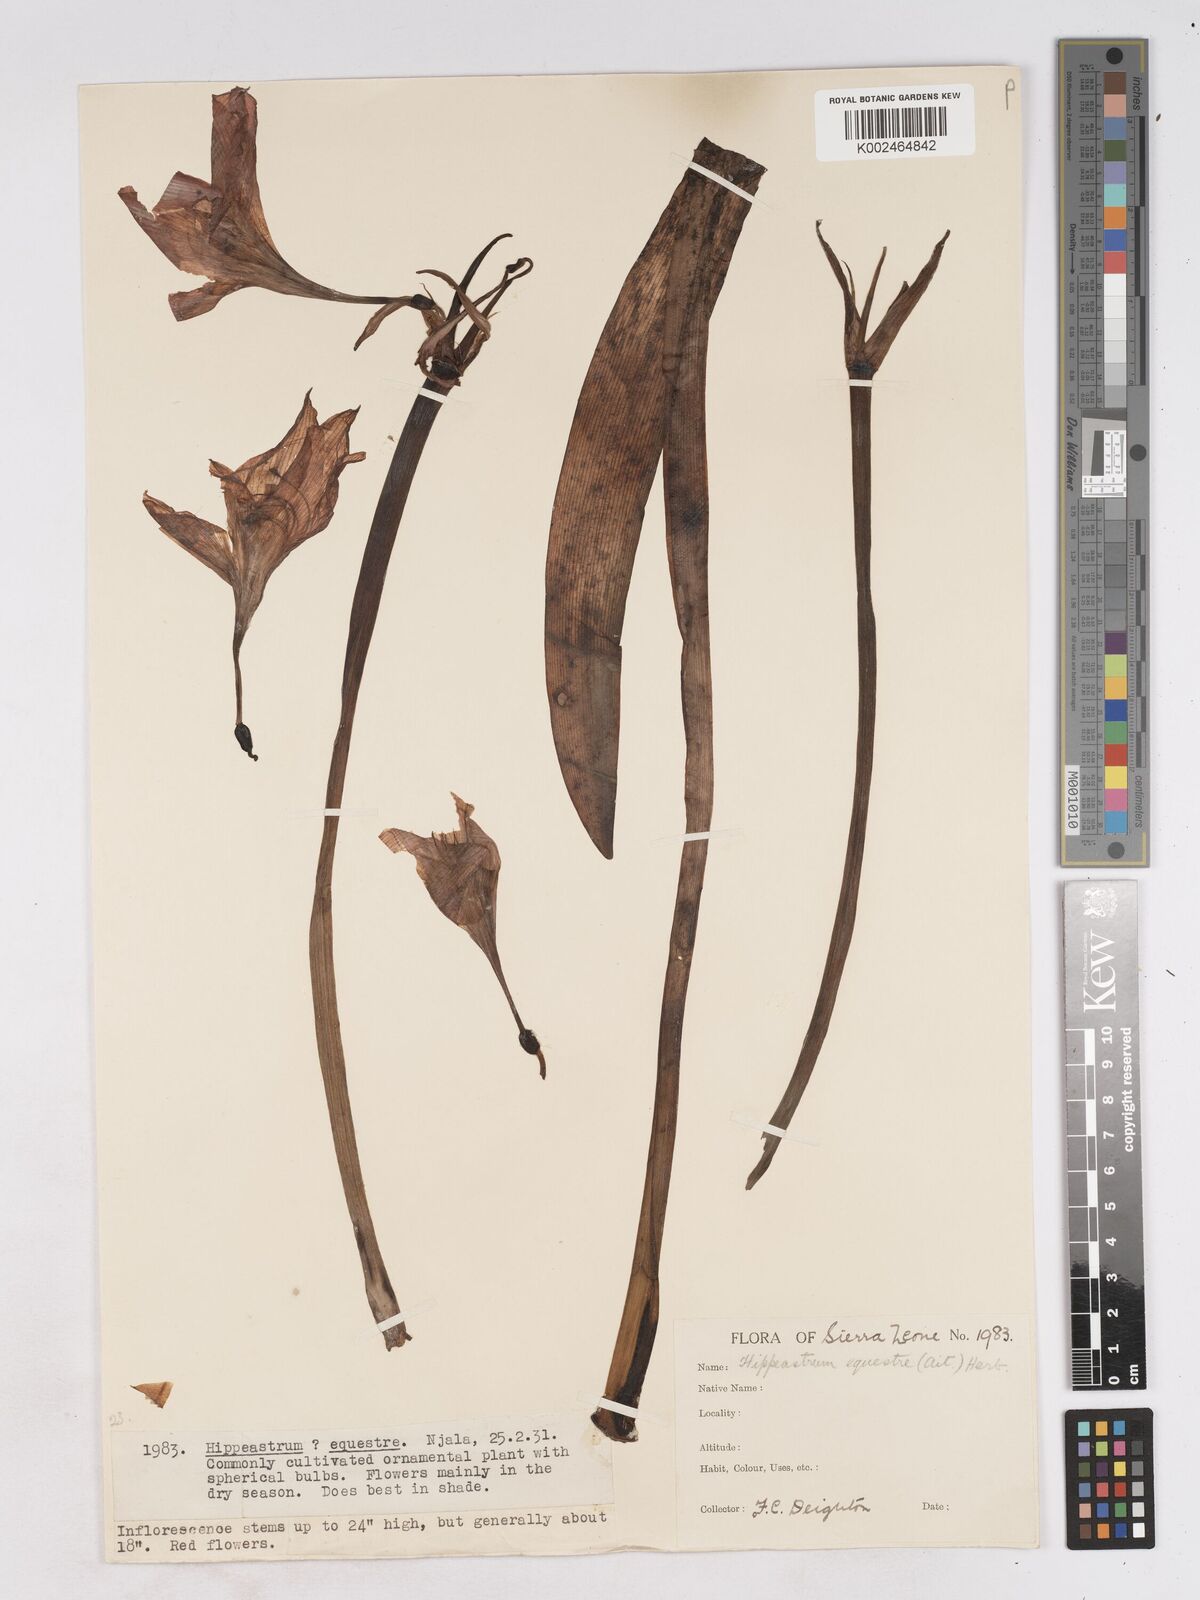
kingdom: Plantae
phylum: Tracheophyta
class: Liliopsida
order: Asparagales
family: Amaryllidaceae
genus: Hippeastrum
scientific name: Hippeastrum puniceum
